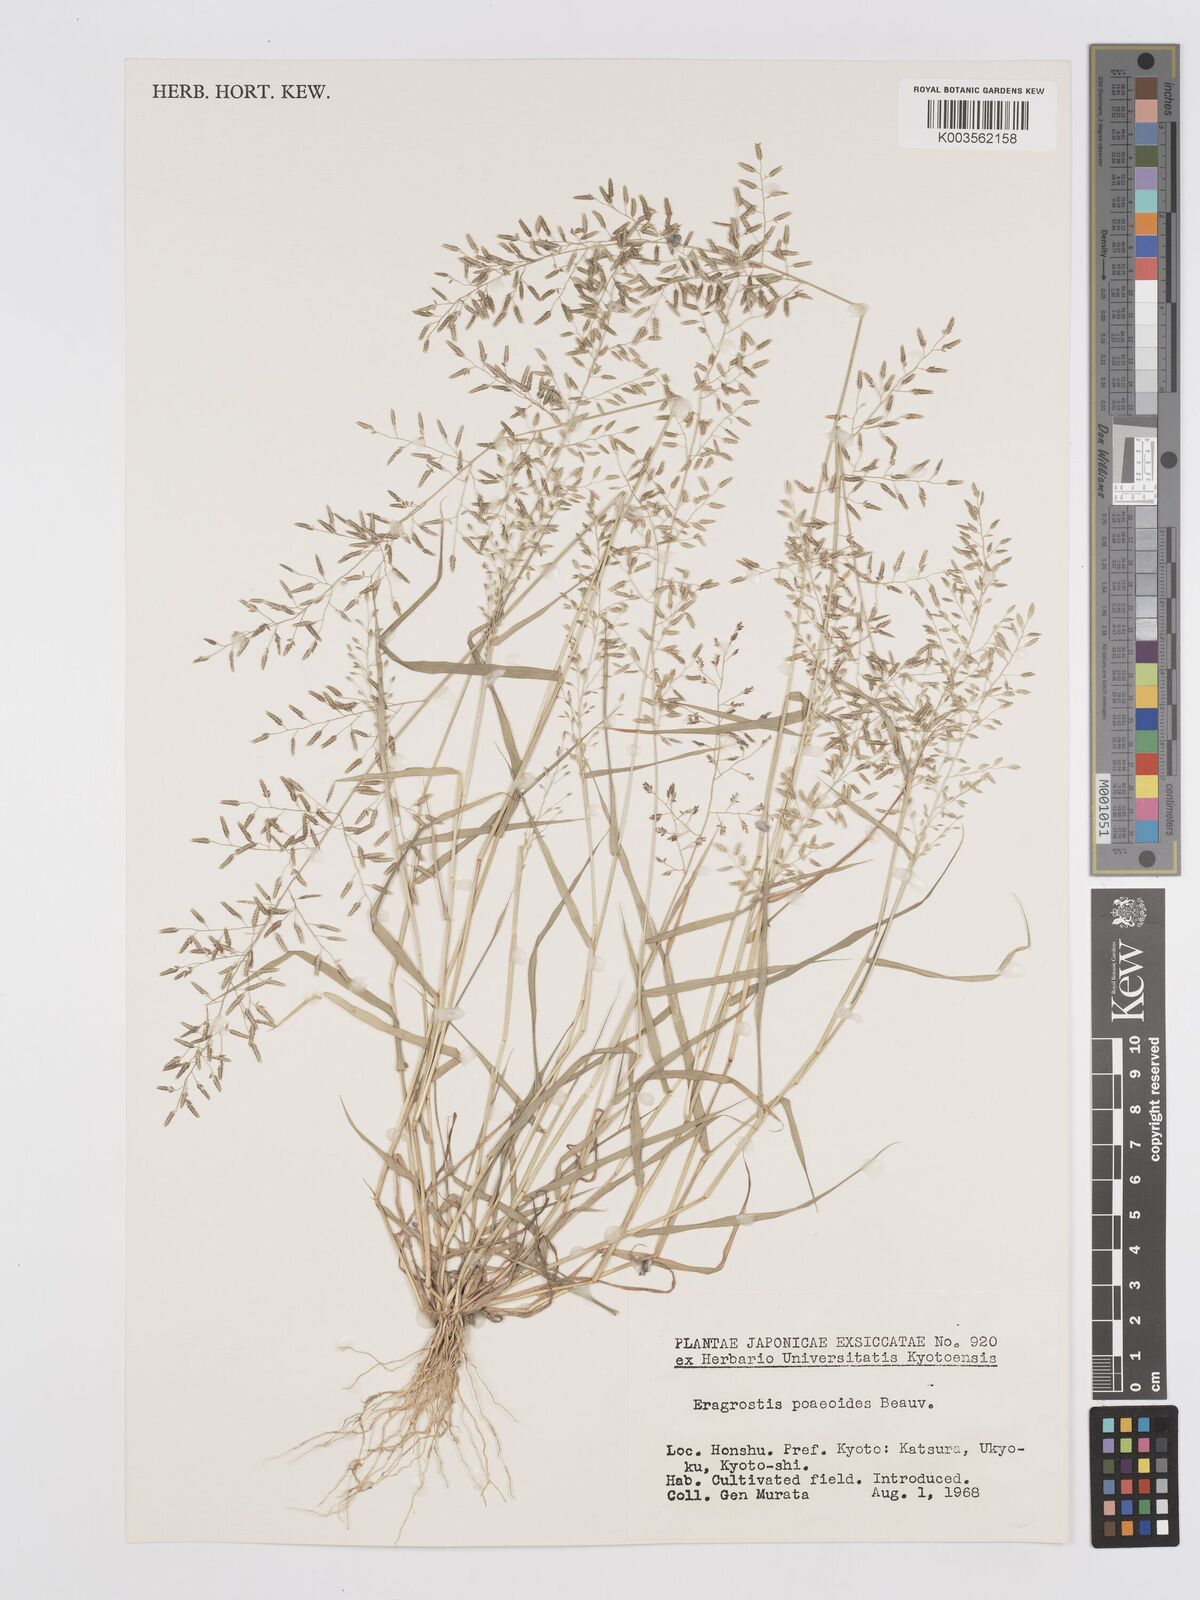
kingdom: Plantae
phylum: Tracheophyta
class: Liliopsida
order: Poales
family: Poaceae
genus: Eragrostis
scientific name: Eragrostis minor
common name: Small love-grass
